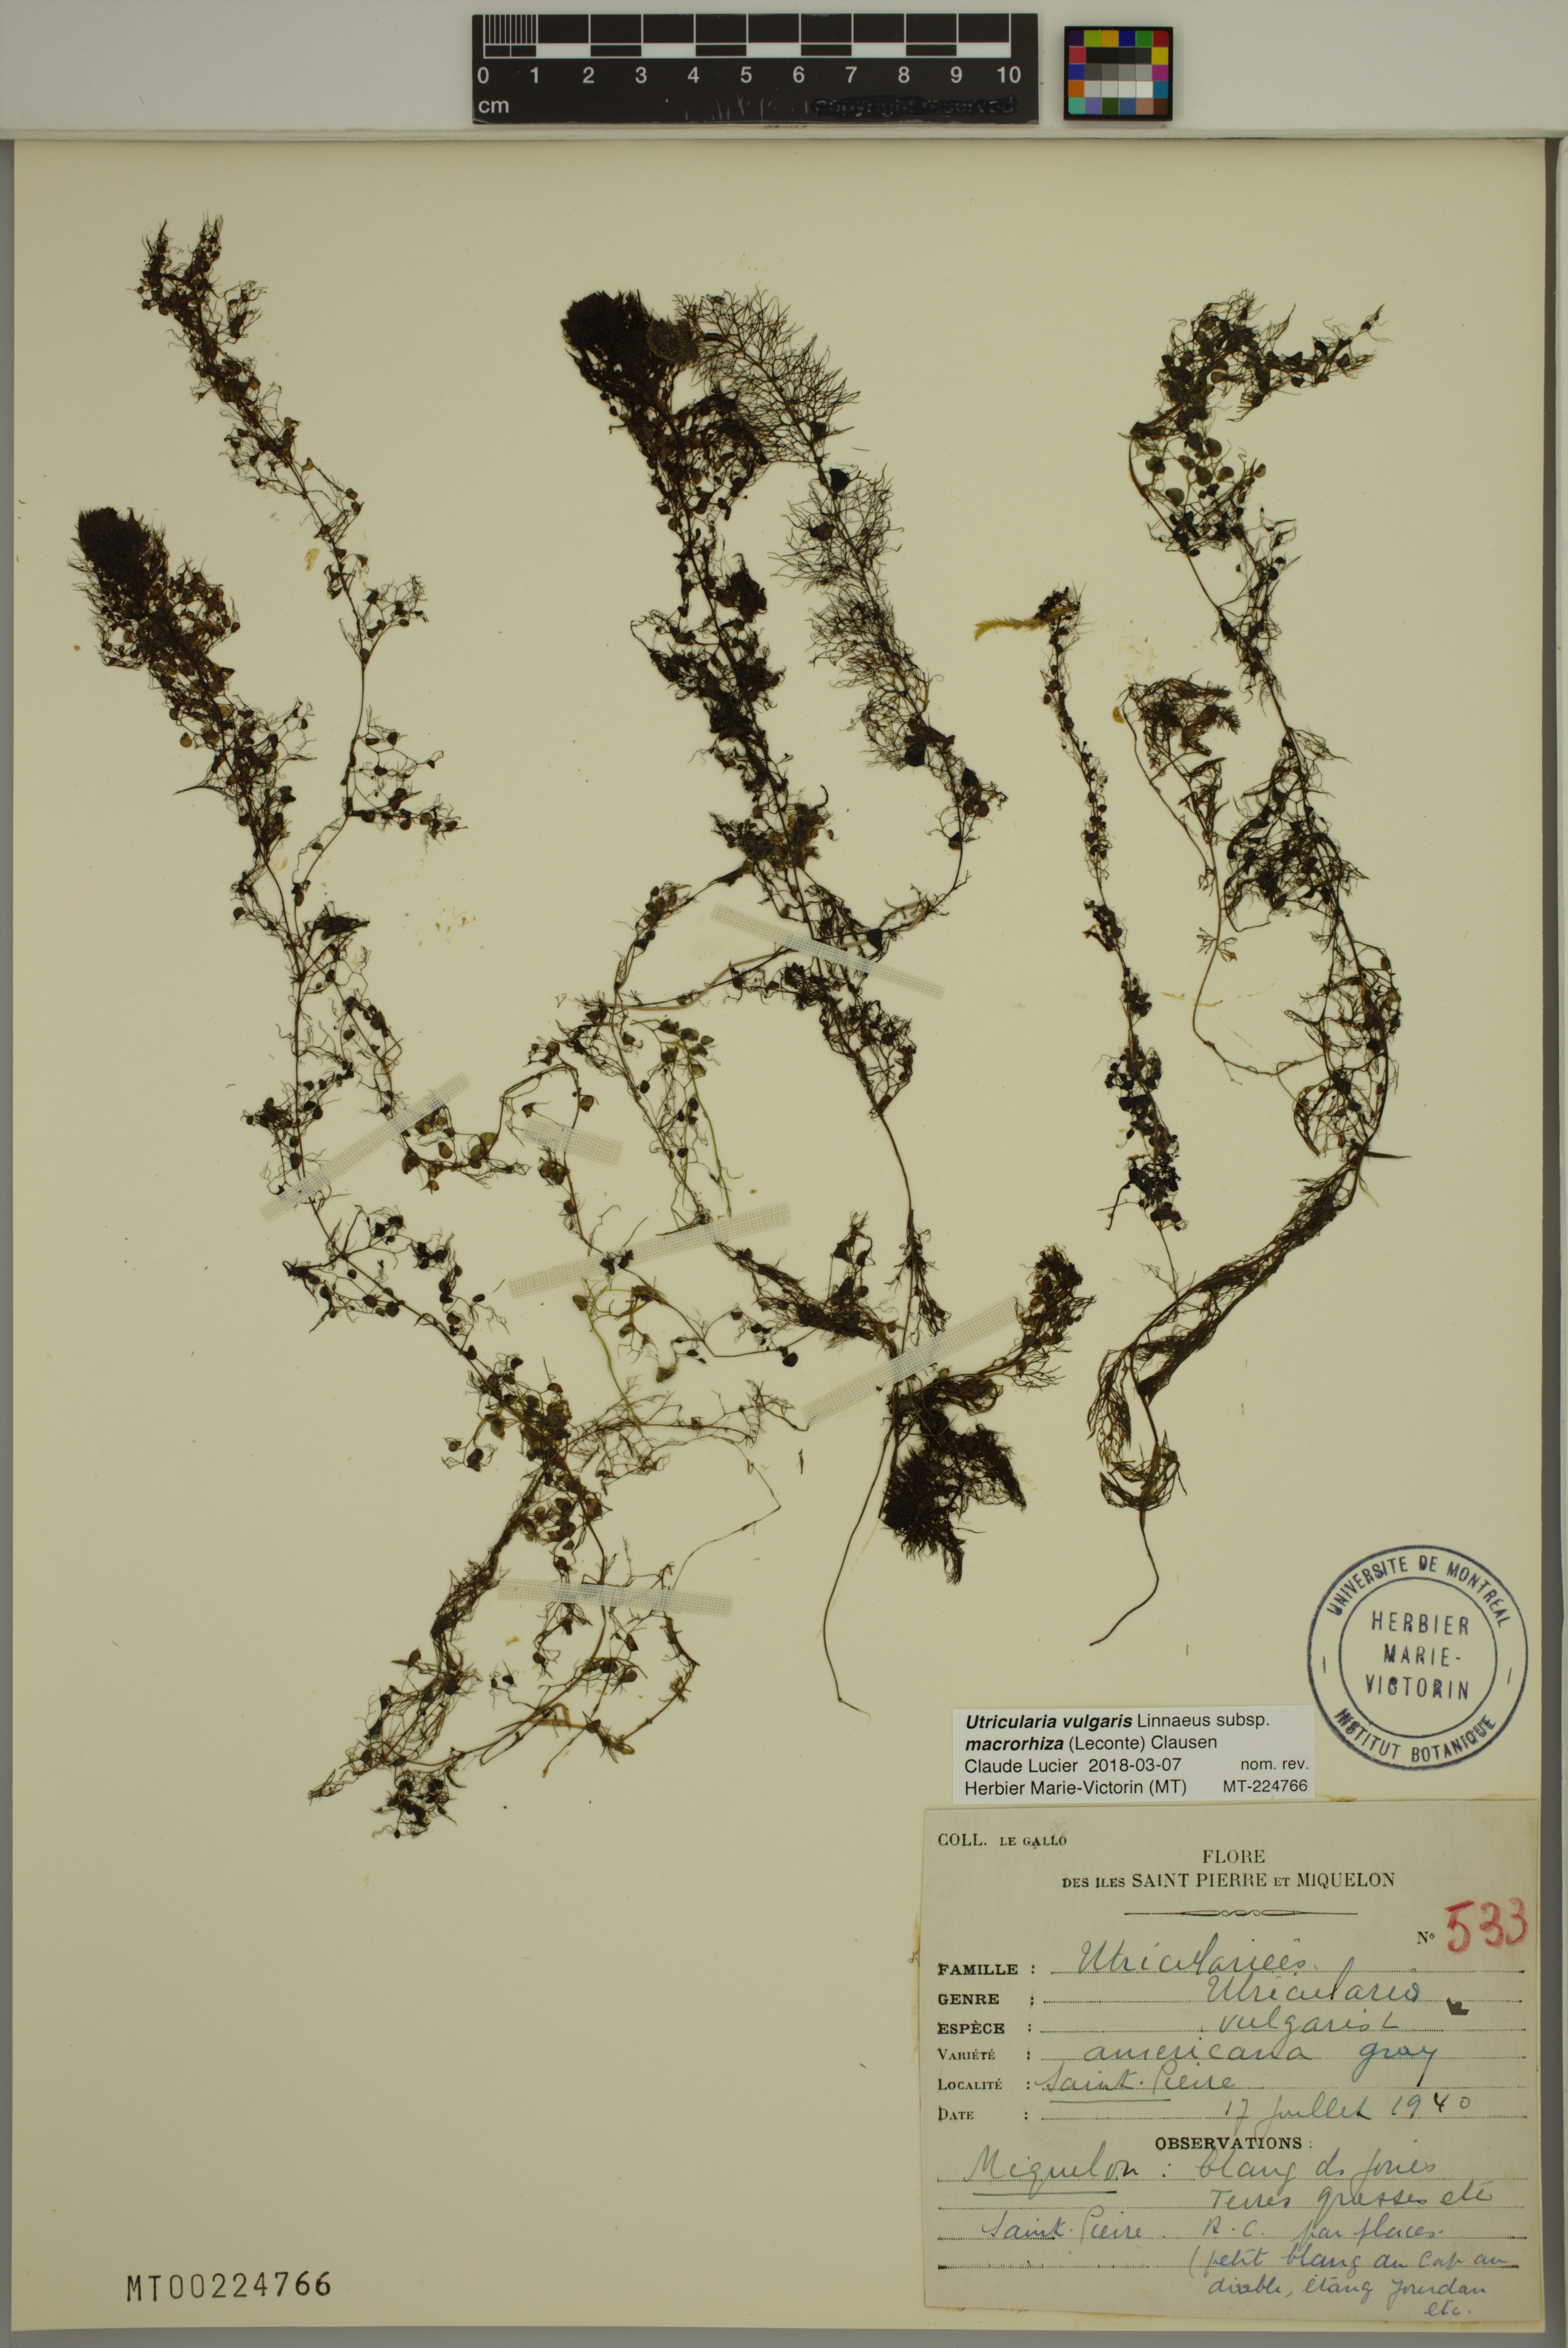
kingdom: Plantae
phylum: Tracheophyta
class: Magnoliopsida
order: Lamiales
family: Lentibulariaceae
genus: Utricularia
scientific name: Utricularia macrorhiza
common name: Common bladderwort
